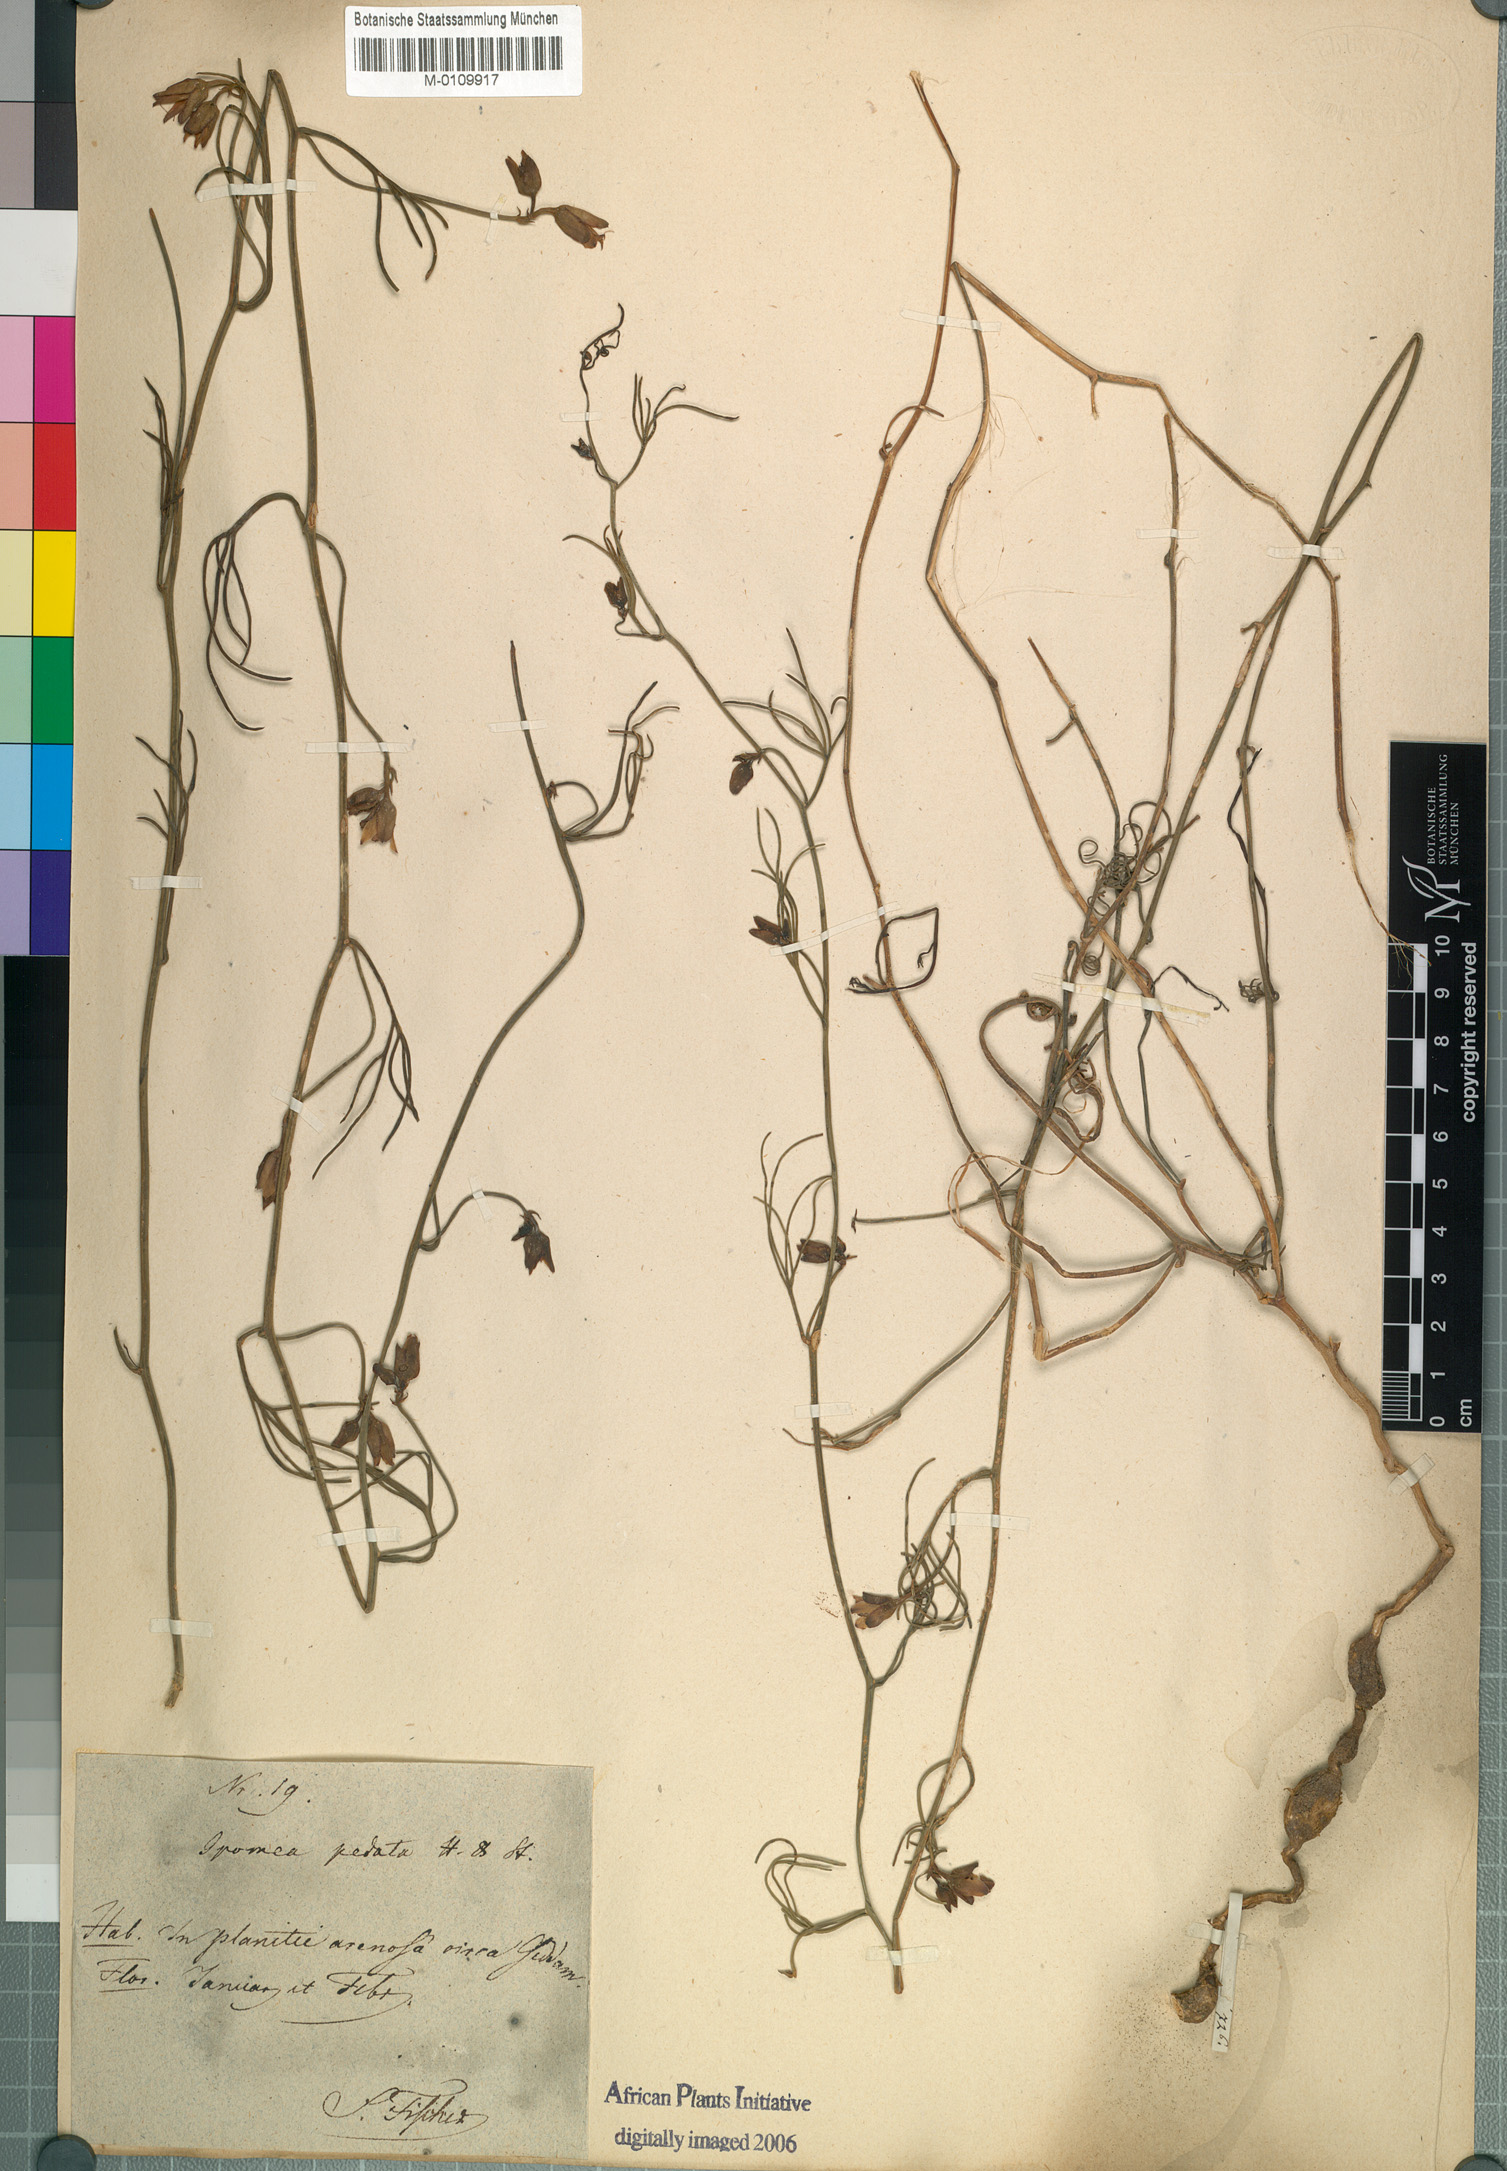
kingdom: Plantae
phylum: Tracheophyta
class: Magnoliopsida
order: Solanales
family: Convolvulaceae
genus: Distimake
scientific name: Distimake semisagittus
